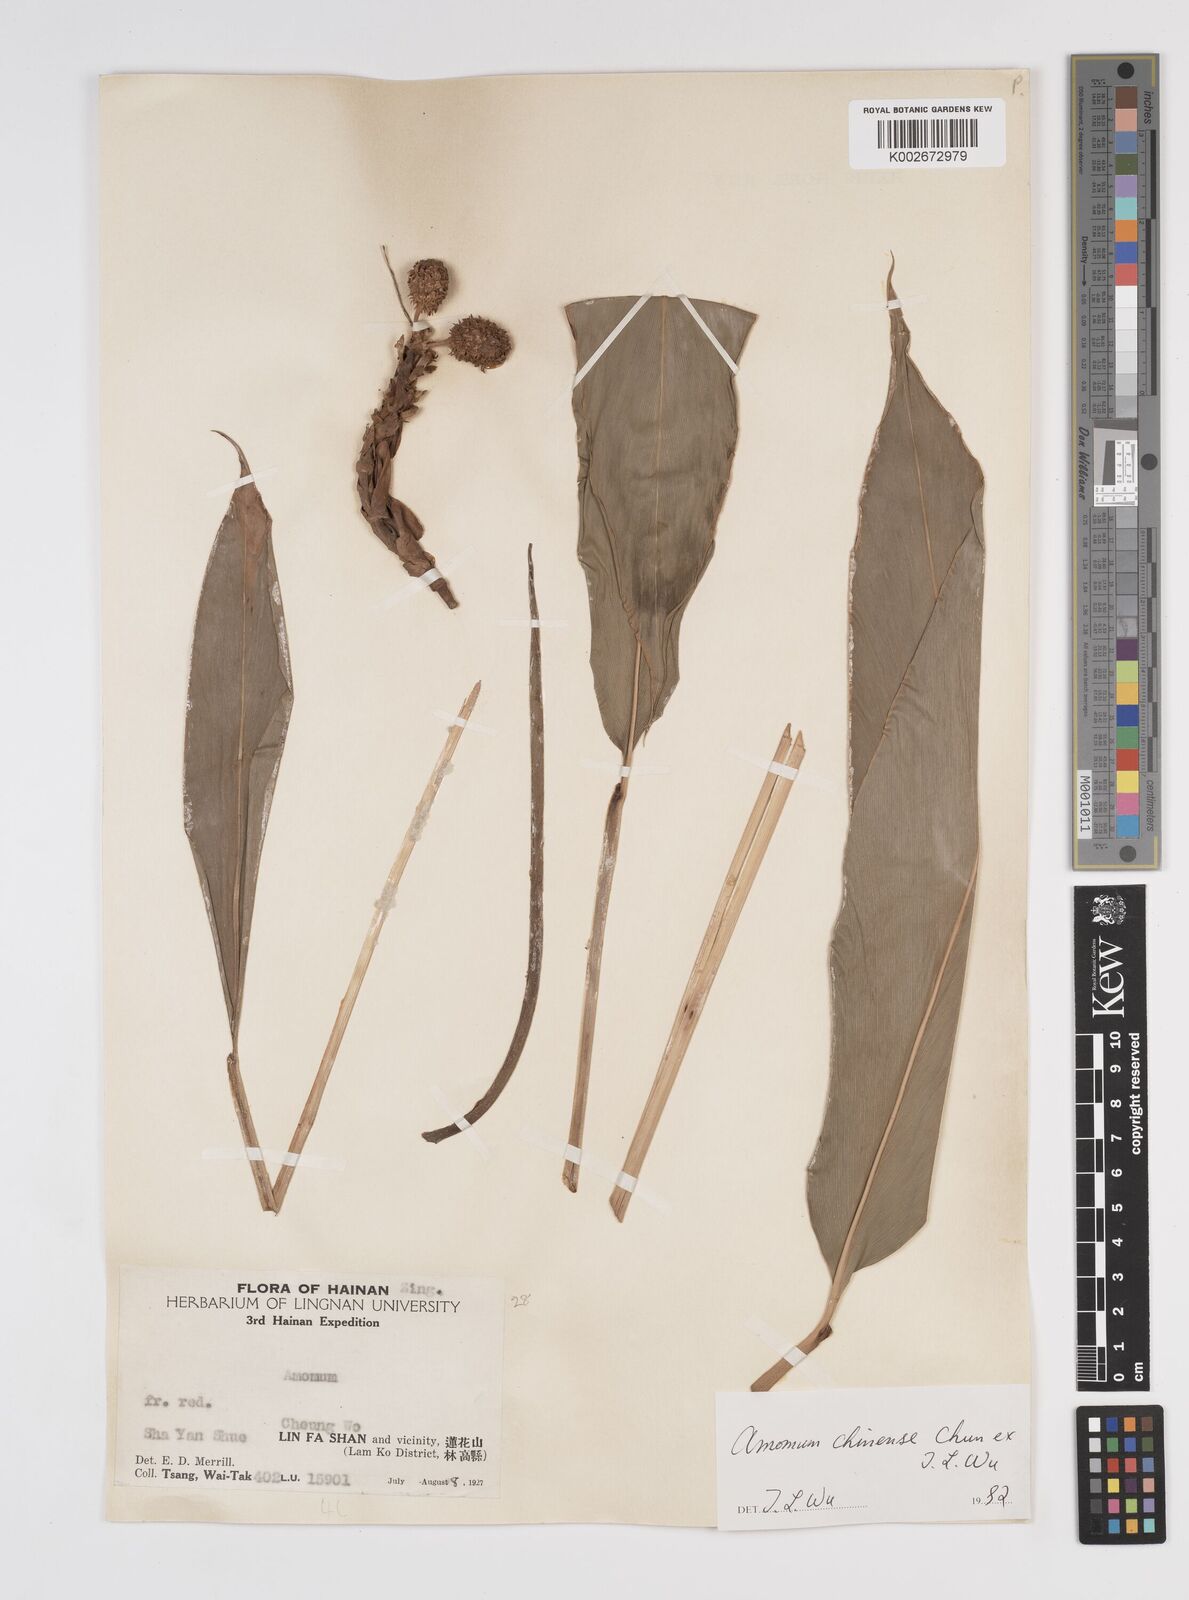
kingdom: Plantae
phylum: Tracheophyta
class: Liliopsida
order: Zingiberales
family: Zingiberaceae
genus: Meistera
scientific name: Meistera chinensis
